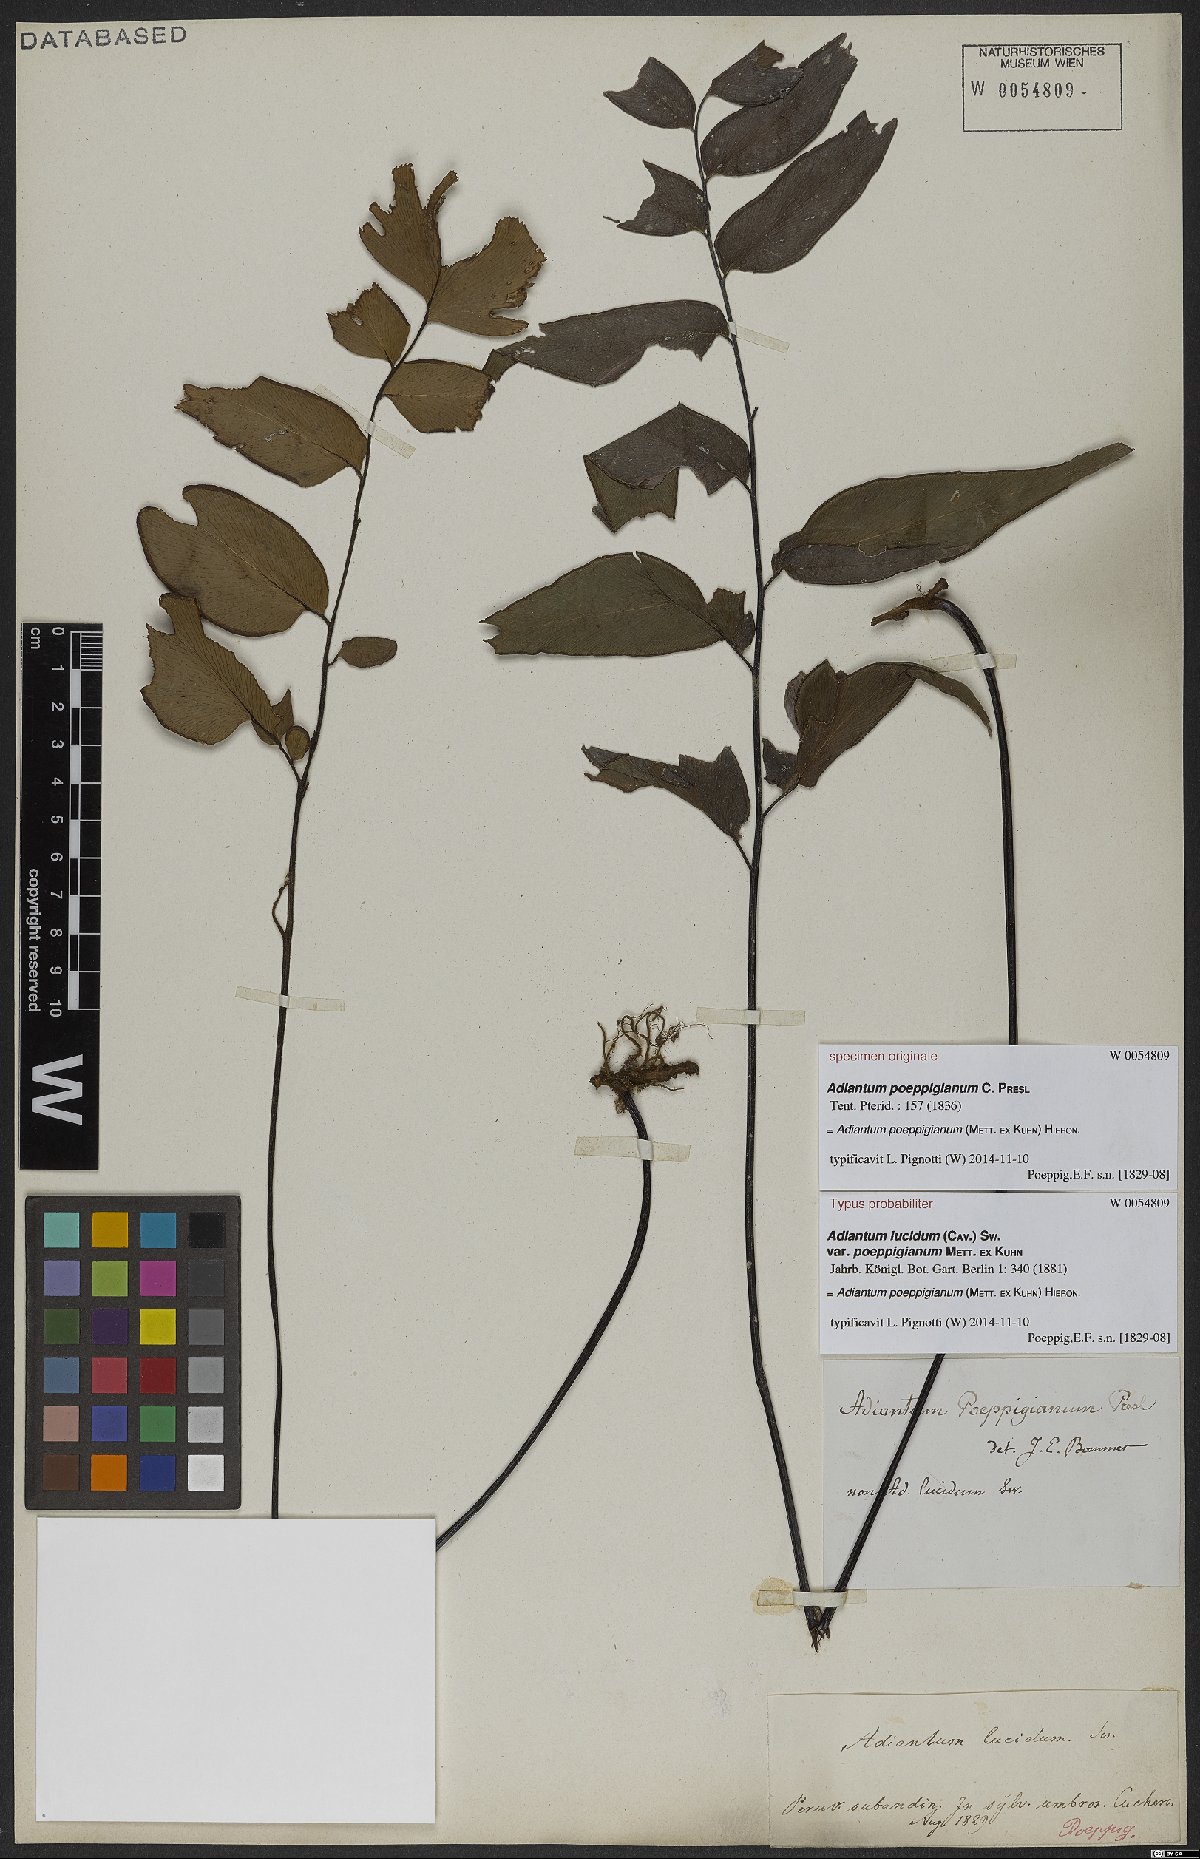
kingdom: Plantae
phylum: Tracheophyta
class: Polypodiopsida
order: Polypodiales
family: Pteridaceae
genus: Adiantum
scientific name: Adiantum poeppigianum
